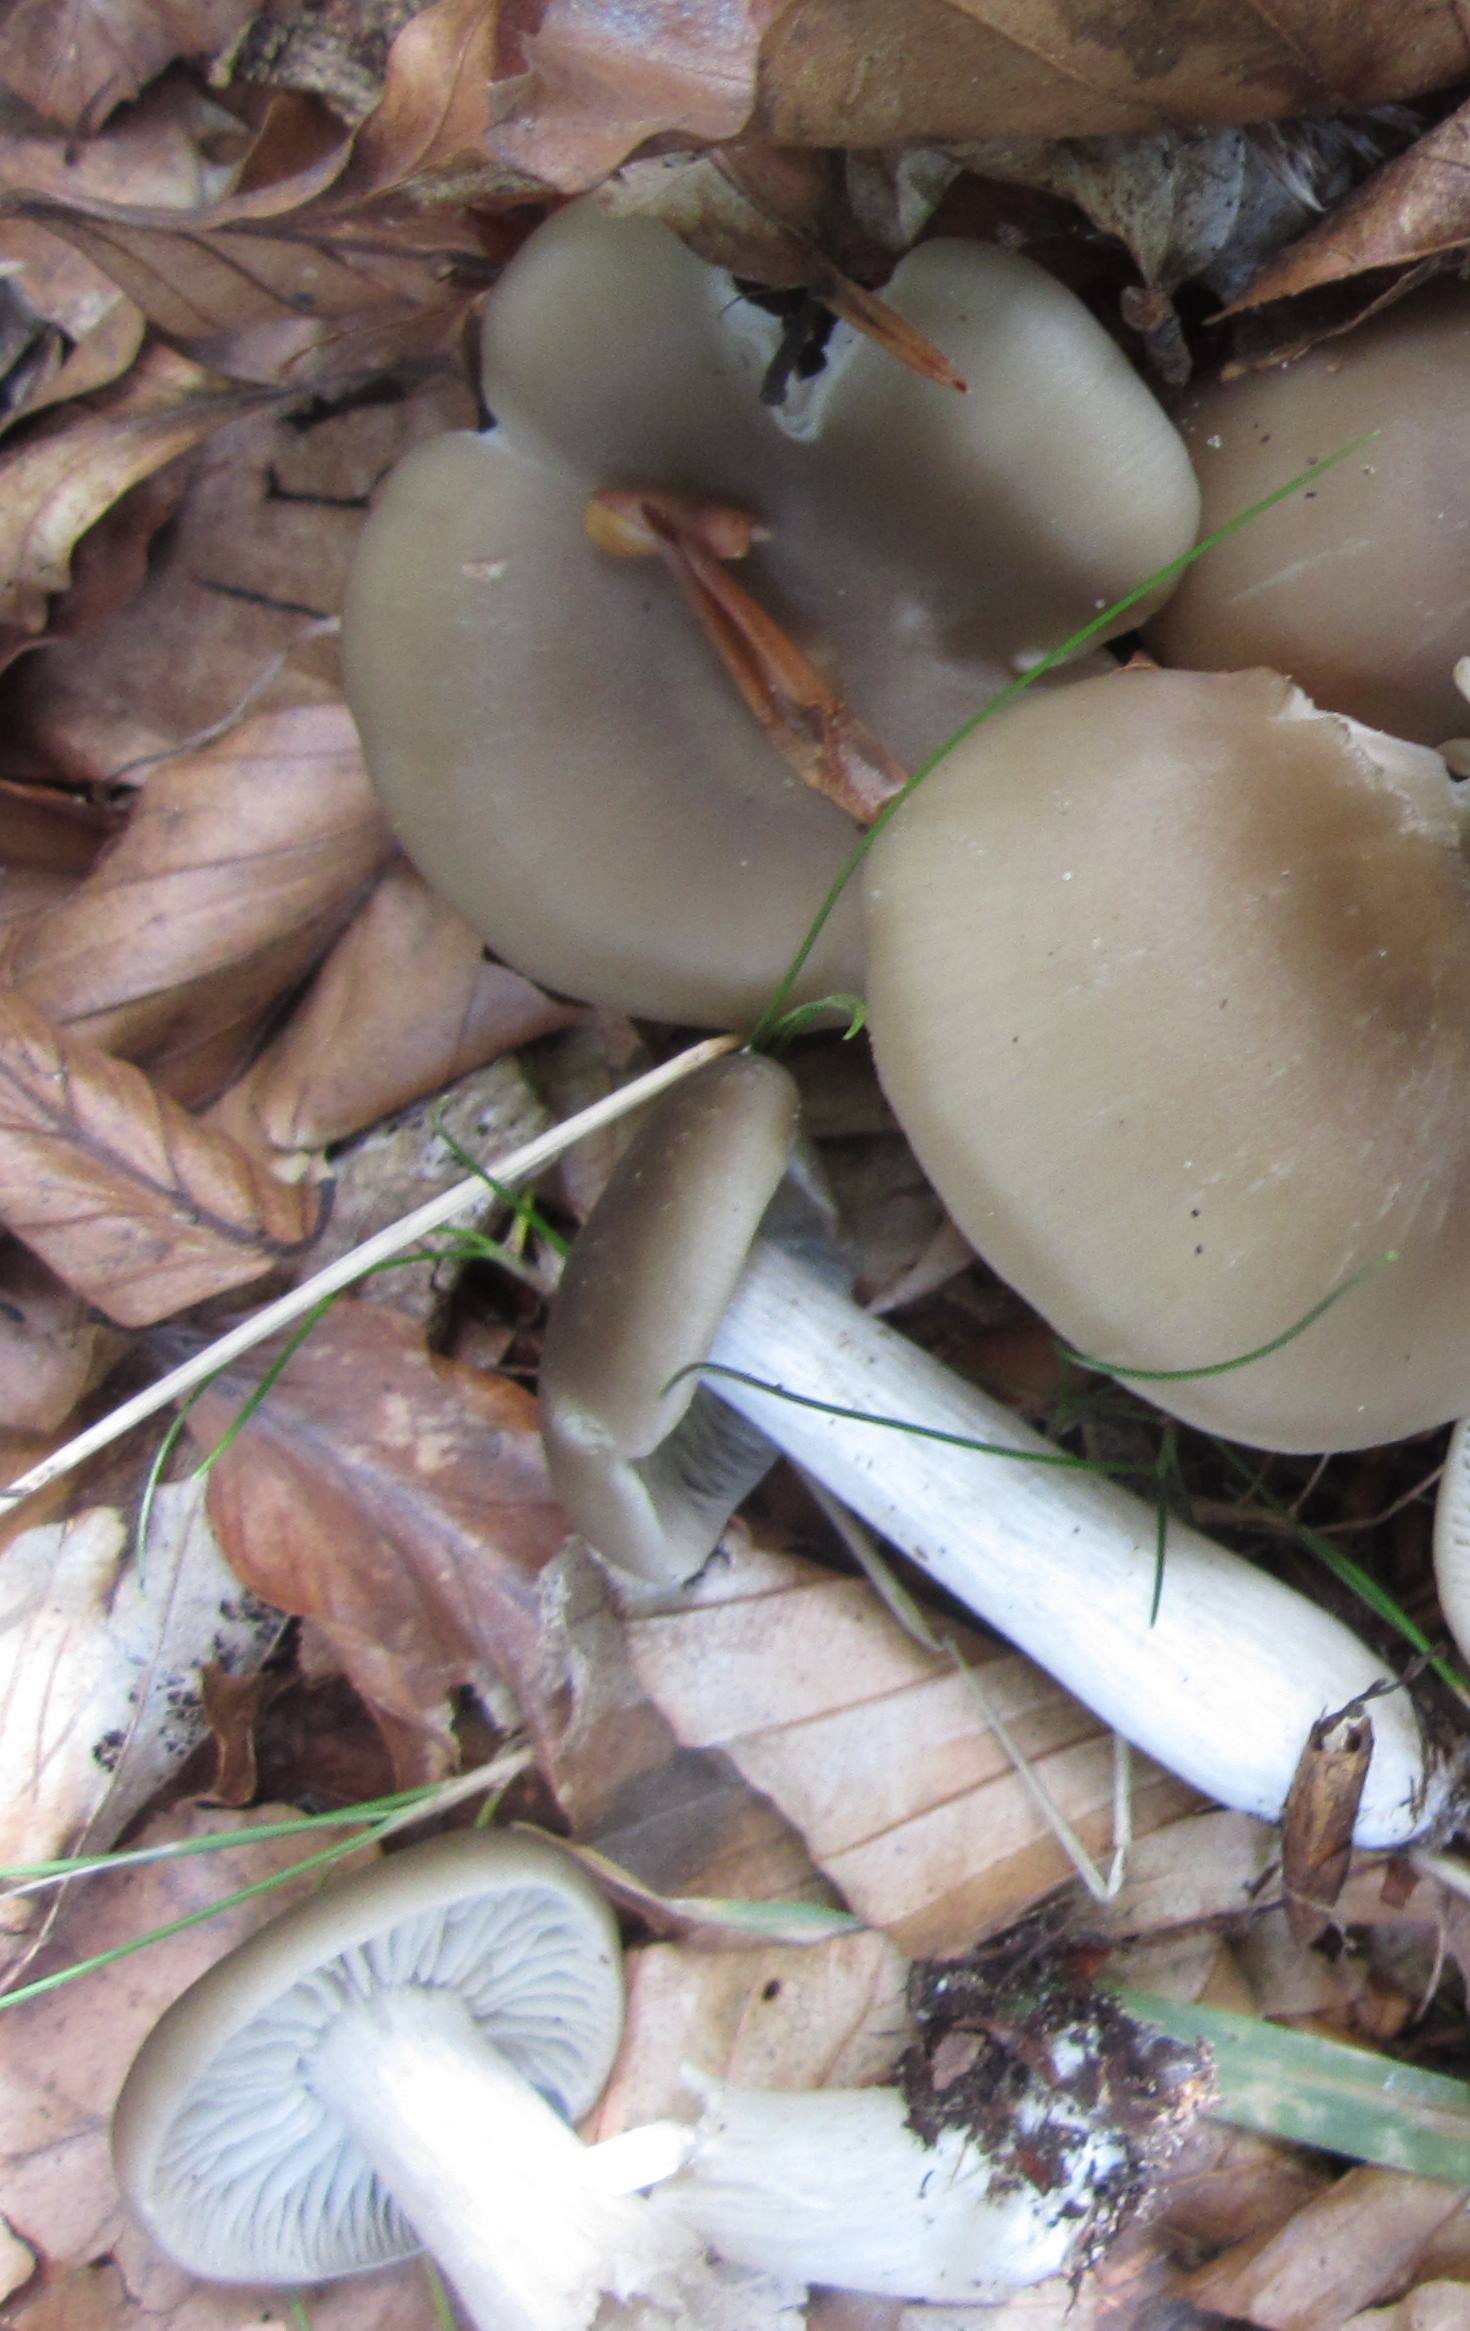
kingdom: Fungi
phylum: Basidiomycota
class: Agaricomycetes
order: Agaricales
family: Lyophyllaceae
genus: Lyophyllum
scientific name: Lyophyllum decastes
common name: Clustered domecap
